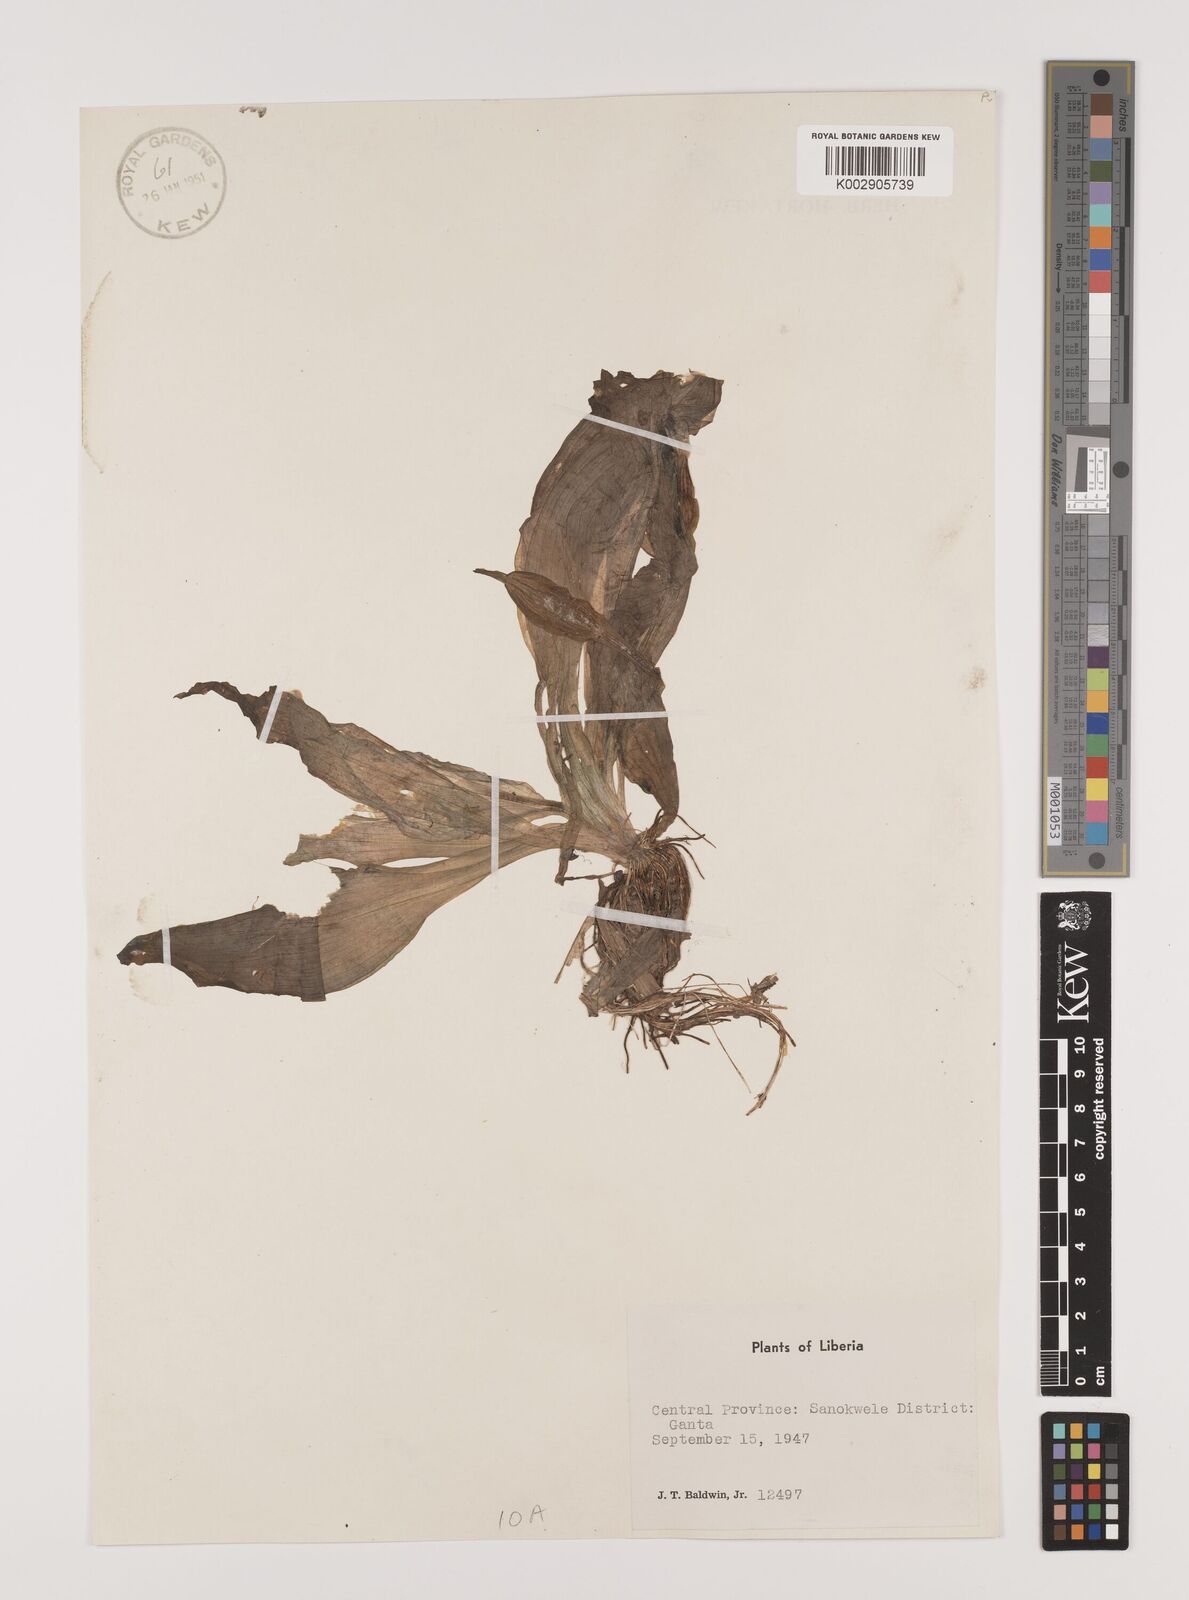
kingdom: Plantae
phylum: Tracheophyta
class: Liliopsida
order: Alismatales
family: Hydrocharitaceae
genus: Ottelia
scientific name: Ottelia ulvifolia
